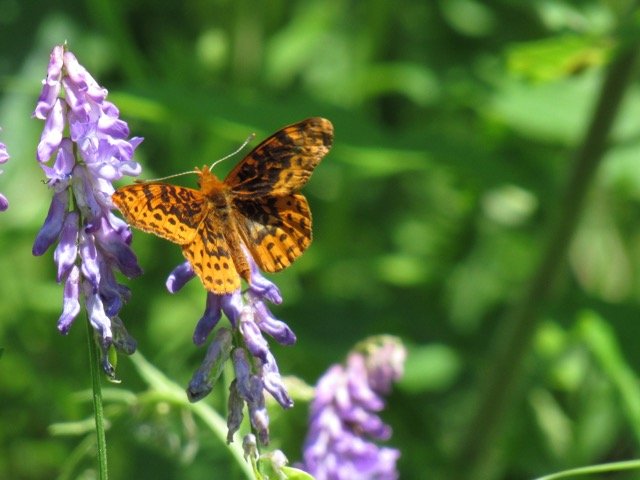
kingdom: Animalia
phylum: Arthropoda
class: Insecta
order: Lepidoptera
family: Nymphalidae
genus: Clossiana
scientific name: Clossiana toddi
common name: Meadow Fritillary
